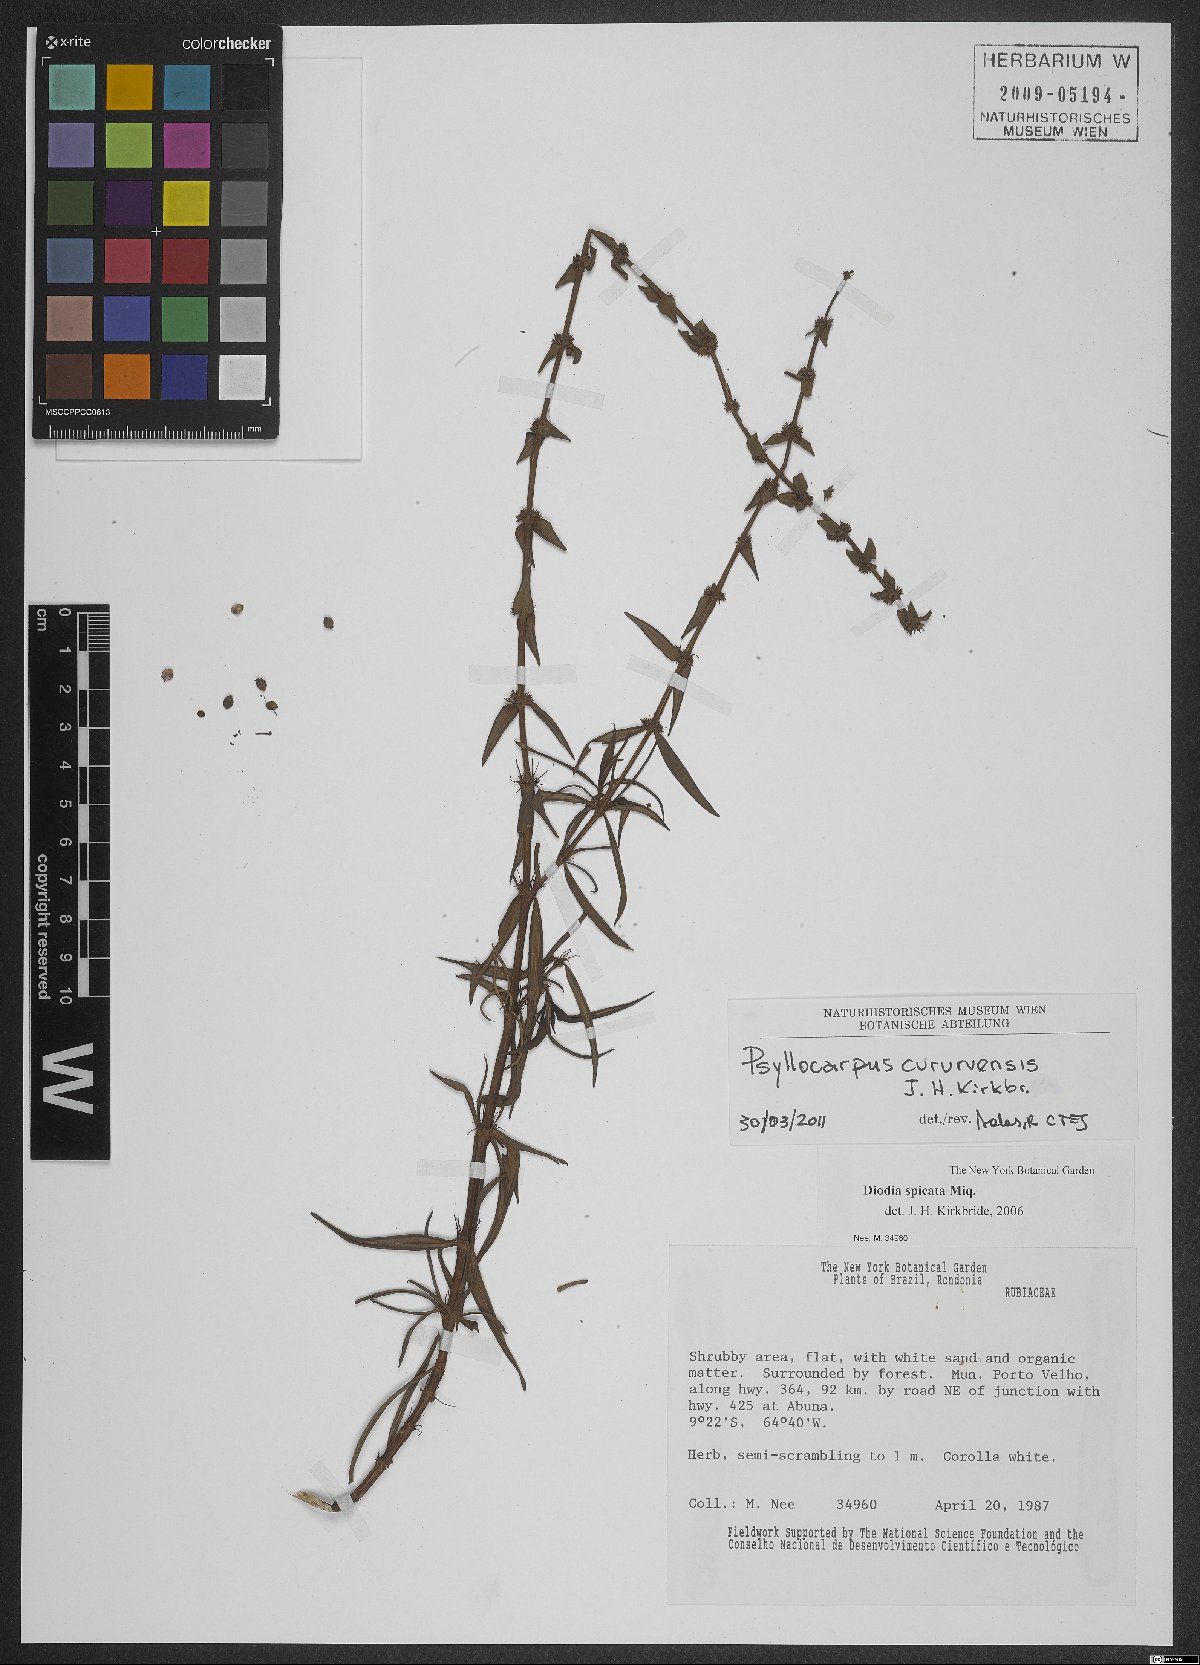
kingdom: Plantae
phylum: Tracheophyta
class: Magnoliopsida
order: Gentianales
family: Rubiaceae
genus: Psyllocarpus
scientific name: Psyllocarpus cururuensis
